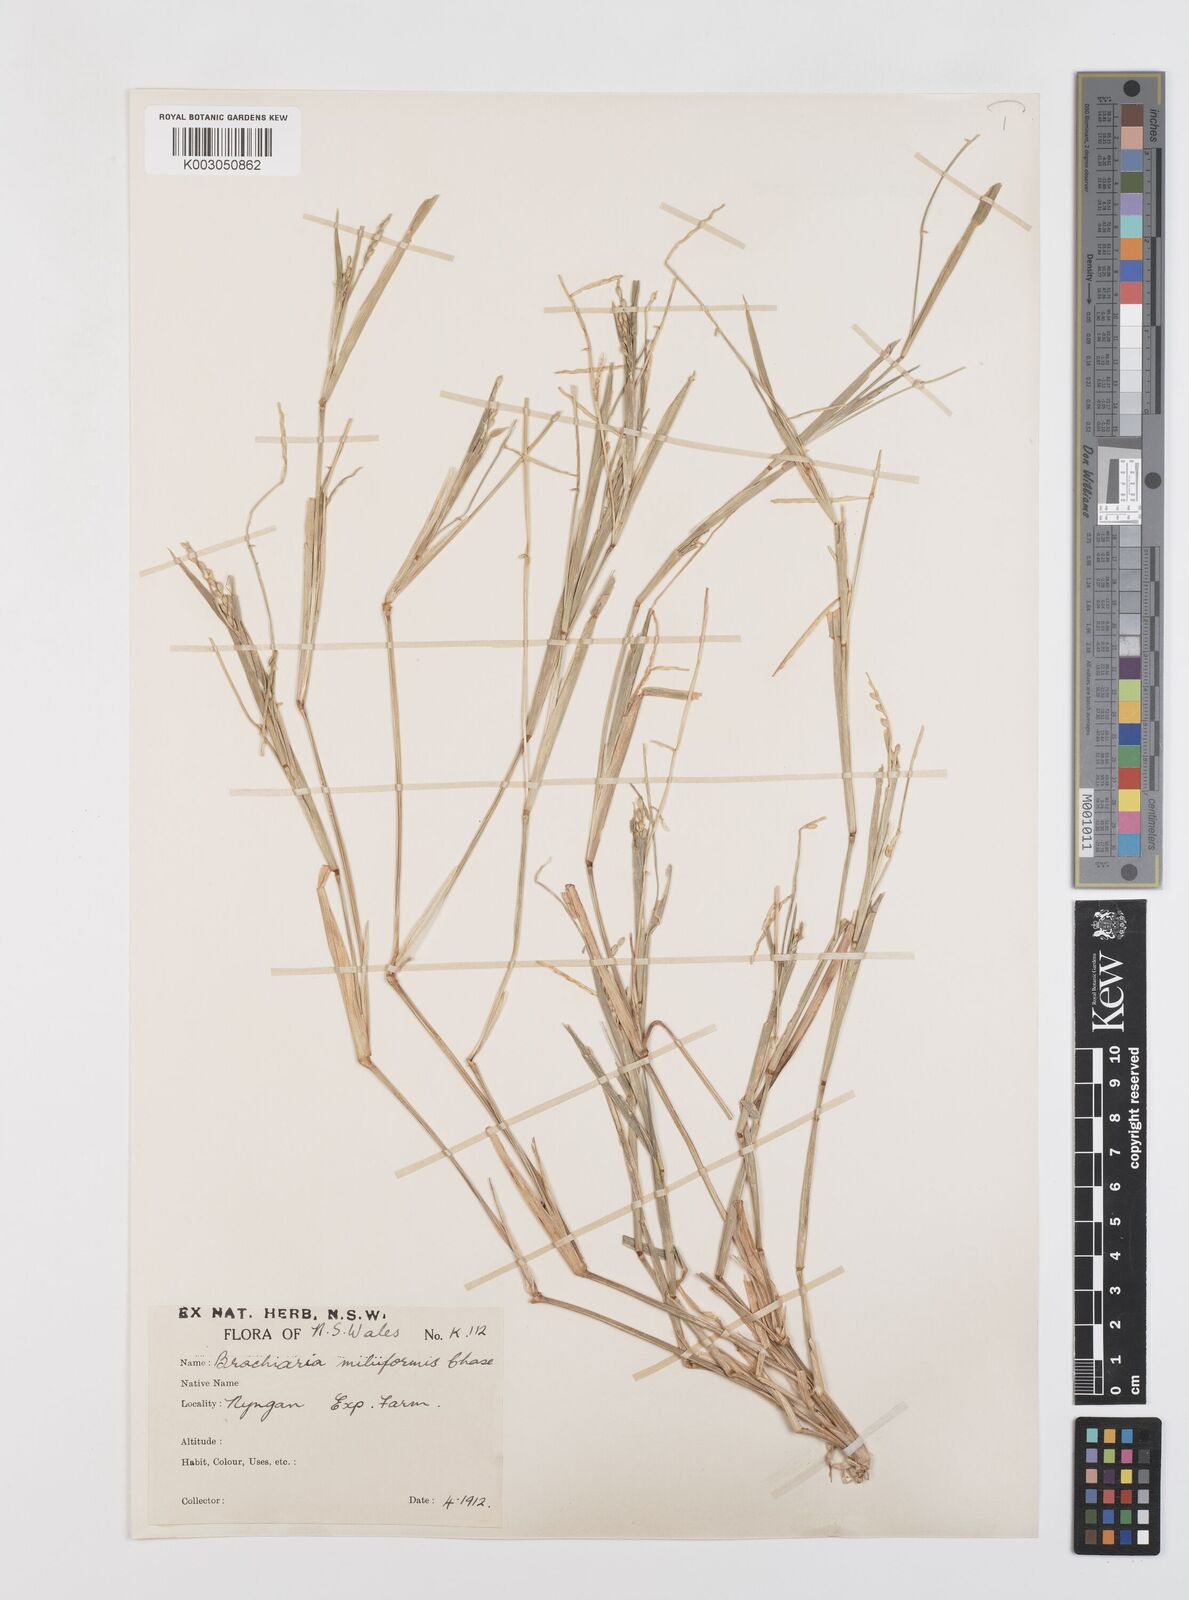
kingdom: Plantae
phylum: Tracheophyta
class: Liliopsida
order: Poales
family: Poaceae
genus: Urochloa
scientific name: Urochloa subquadripara
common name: Armgrass millet
